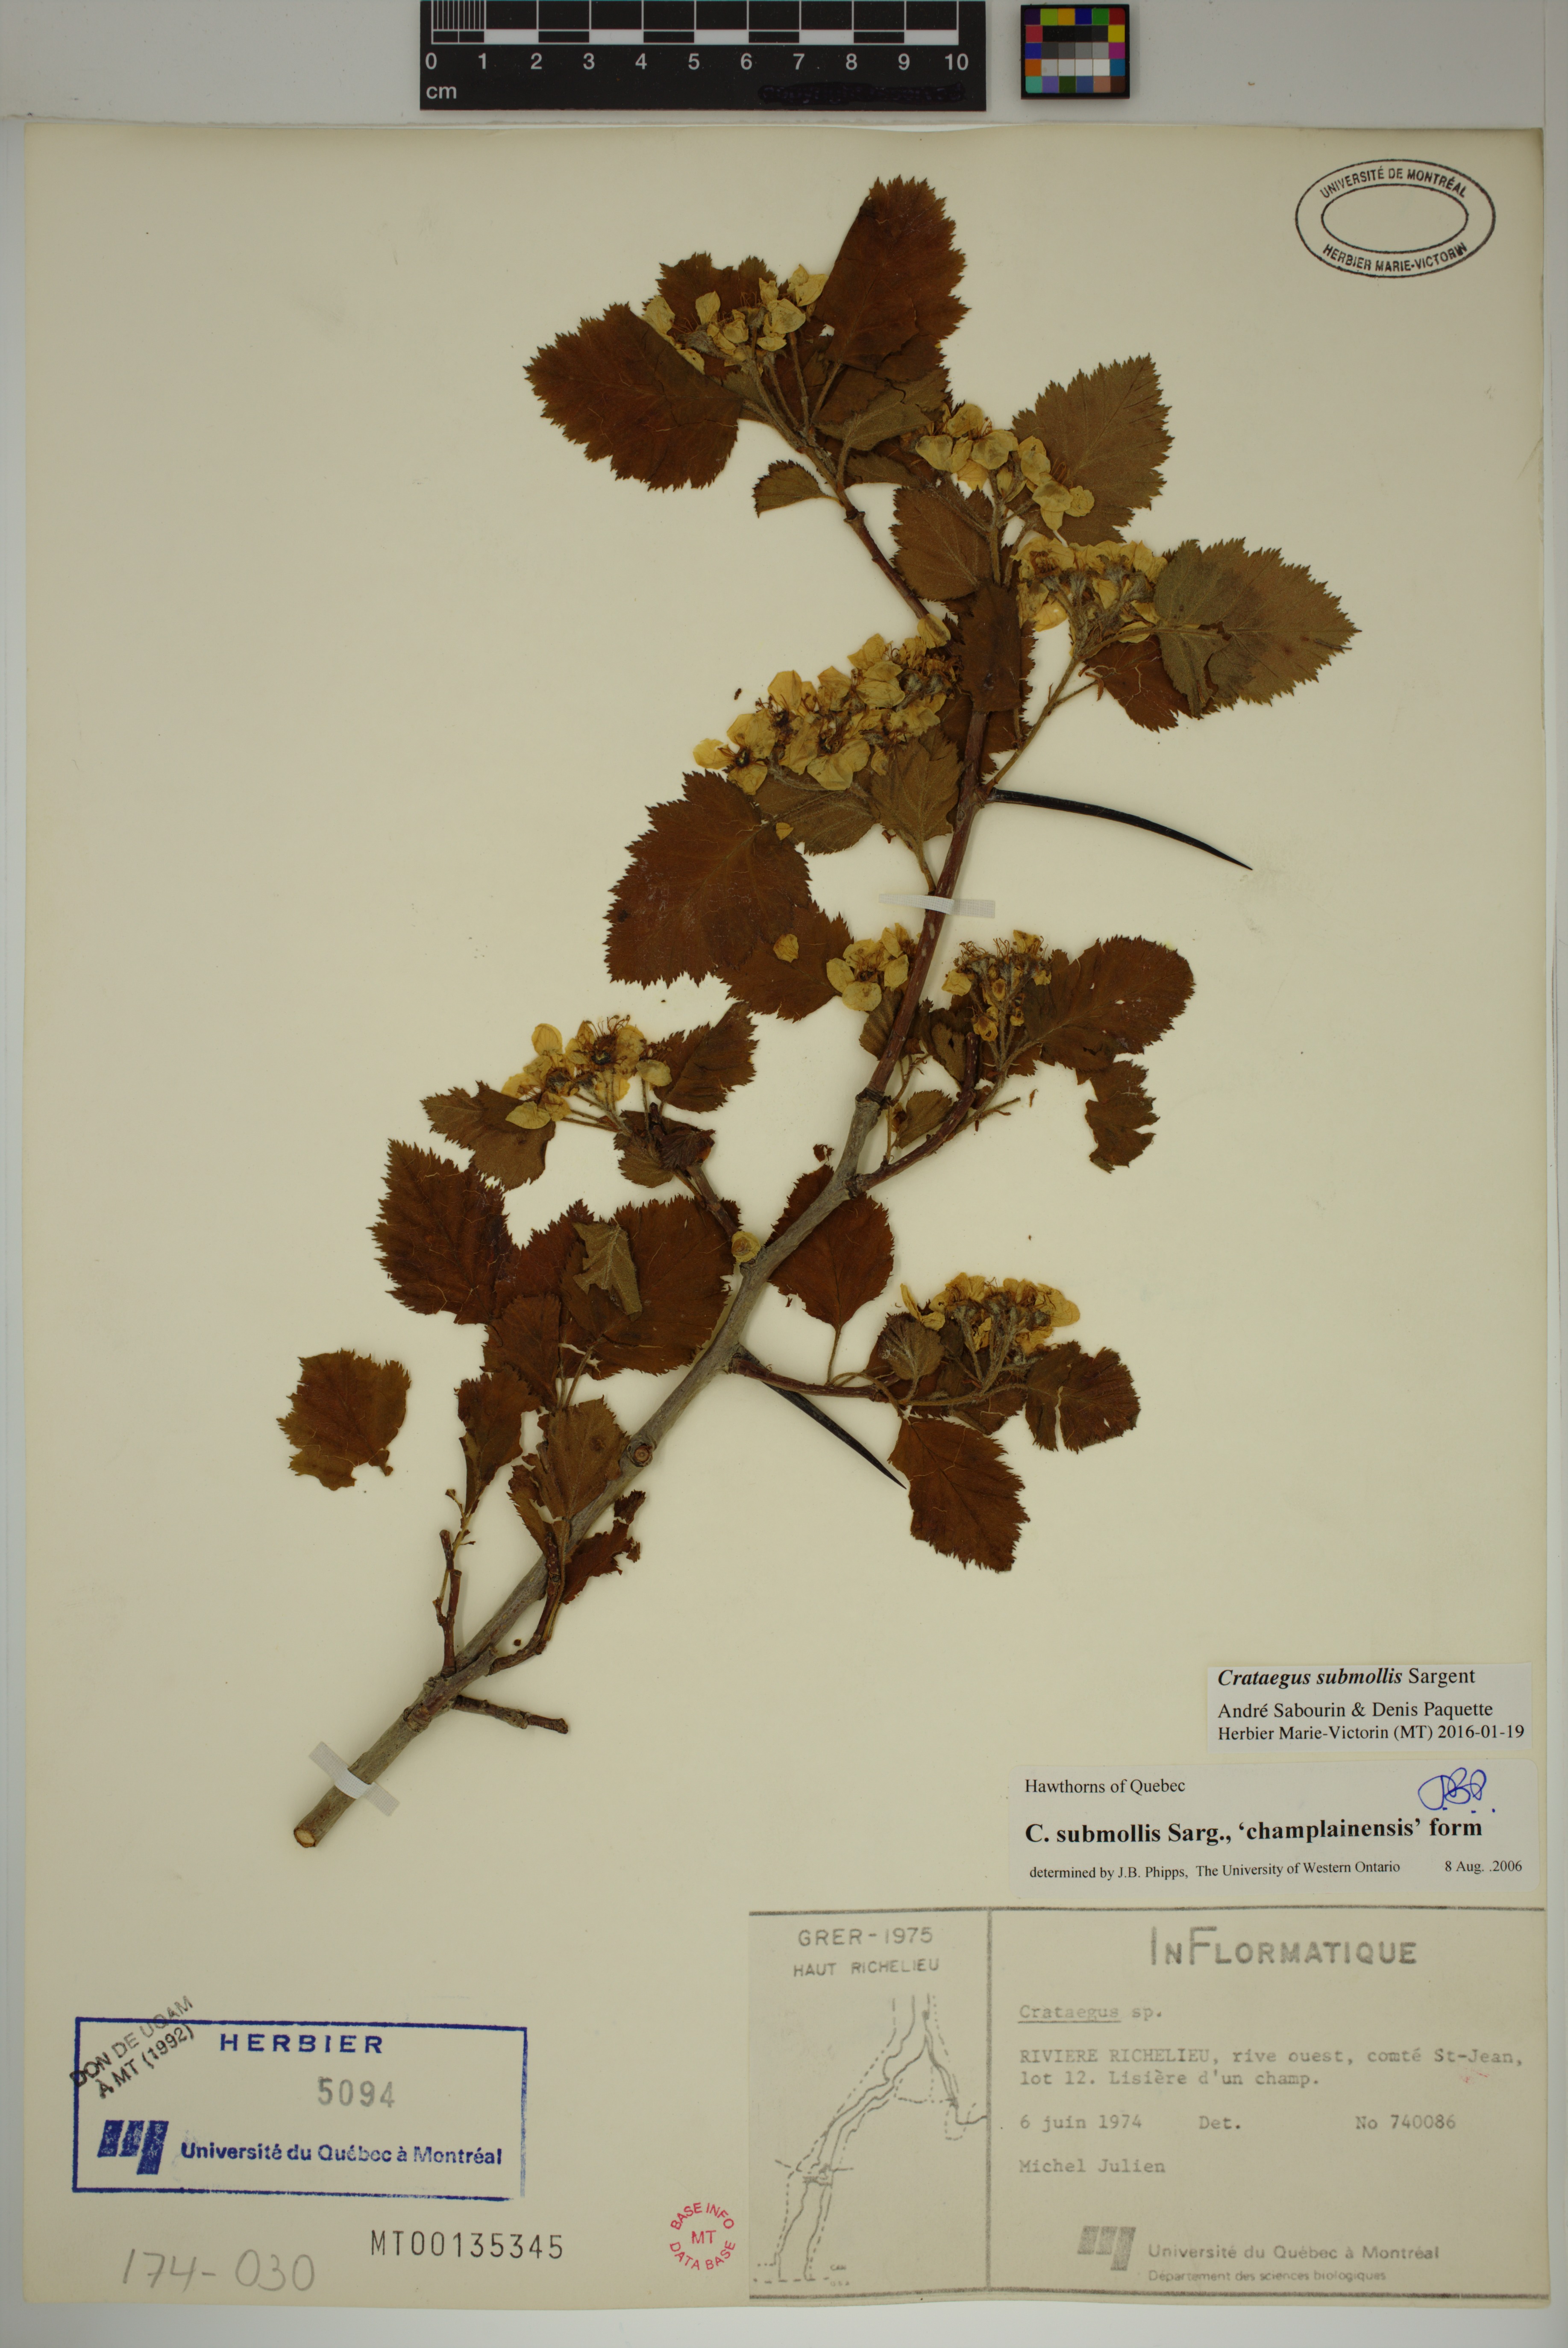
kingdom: Plantae
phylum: Tracheophyta
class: Magnoliopsida
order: Rosales
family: Rosaceae
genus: Crataegus
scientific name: Crataegus submollis
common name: Hairy cockspurthorn
